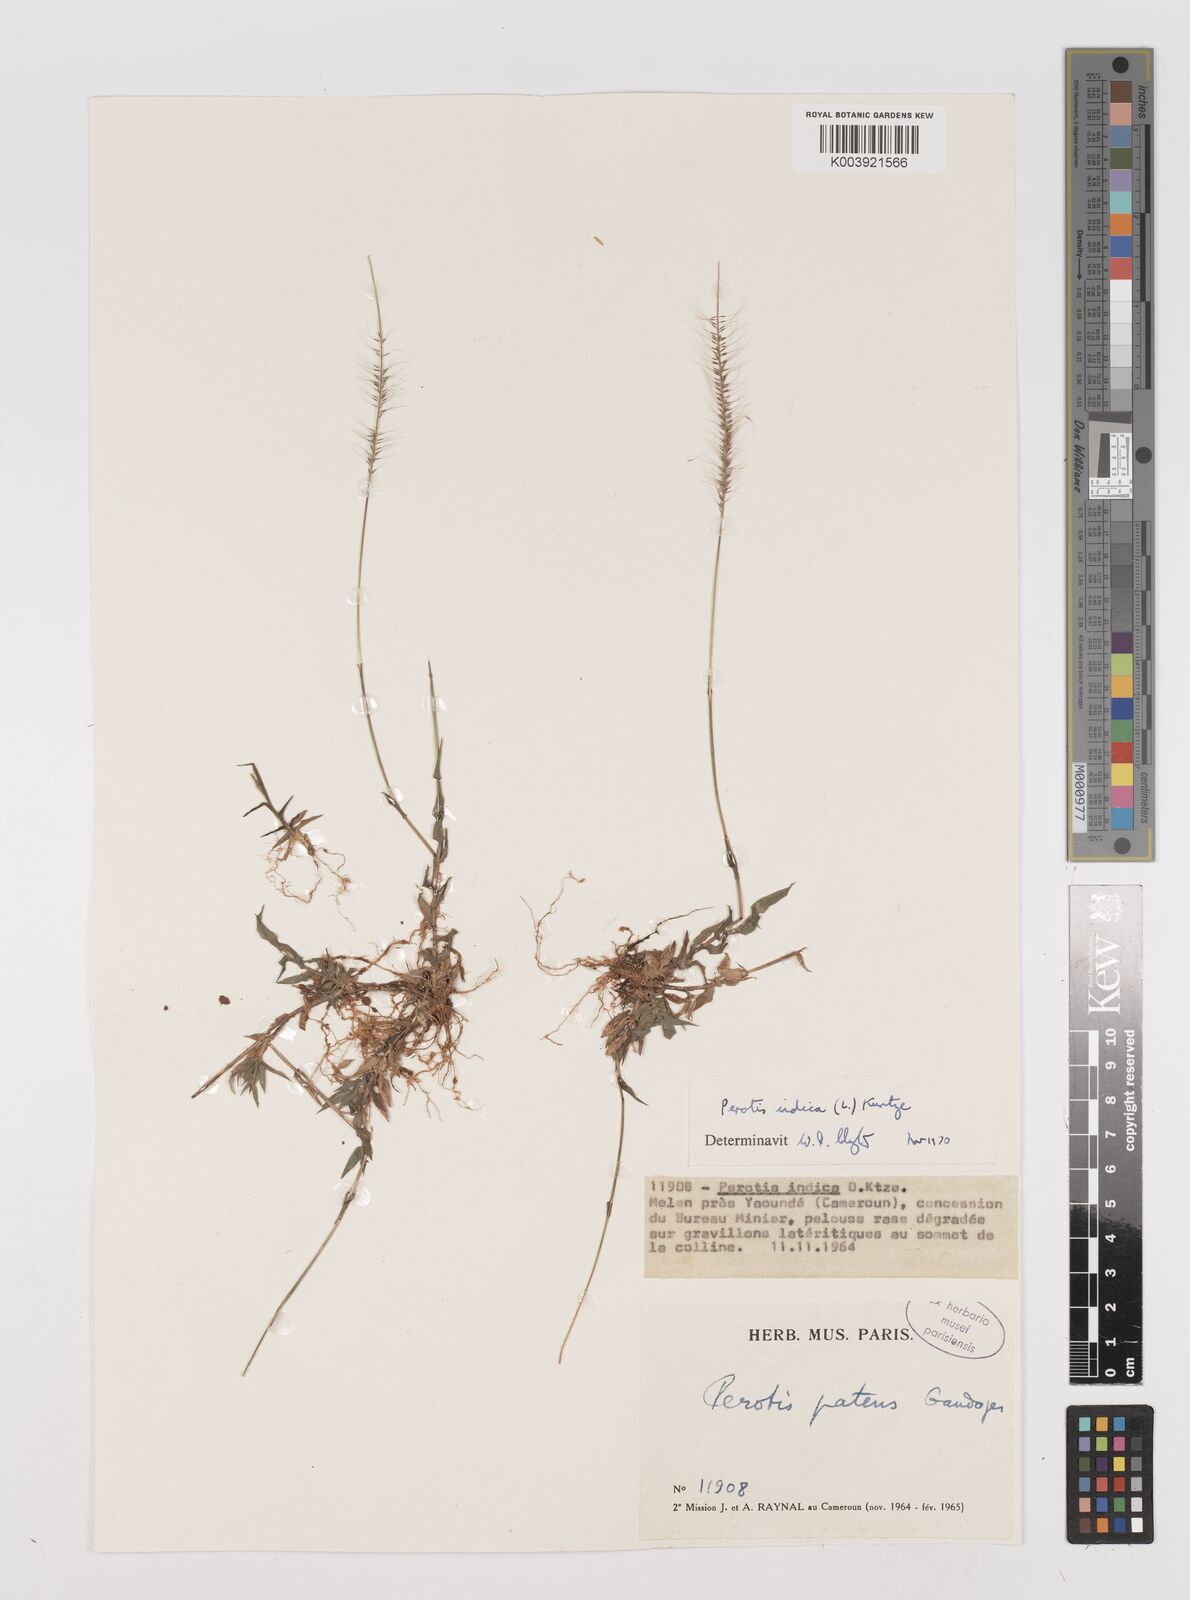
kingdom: Plantae
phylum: Tracheophyta
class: Liliopsida
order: Poales
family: Poaceae
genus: Perotis
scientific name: Perotis indica
